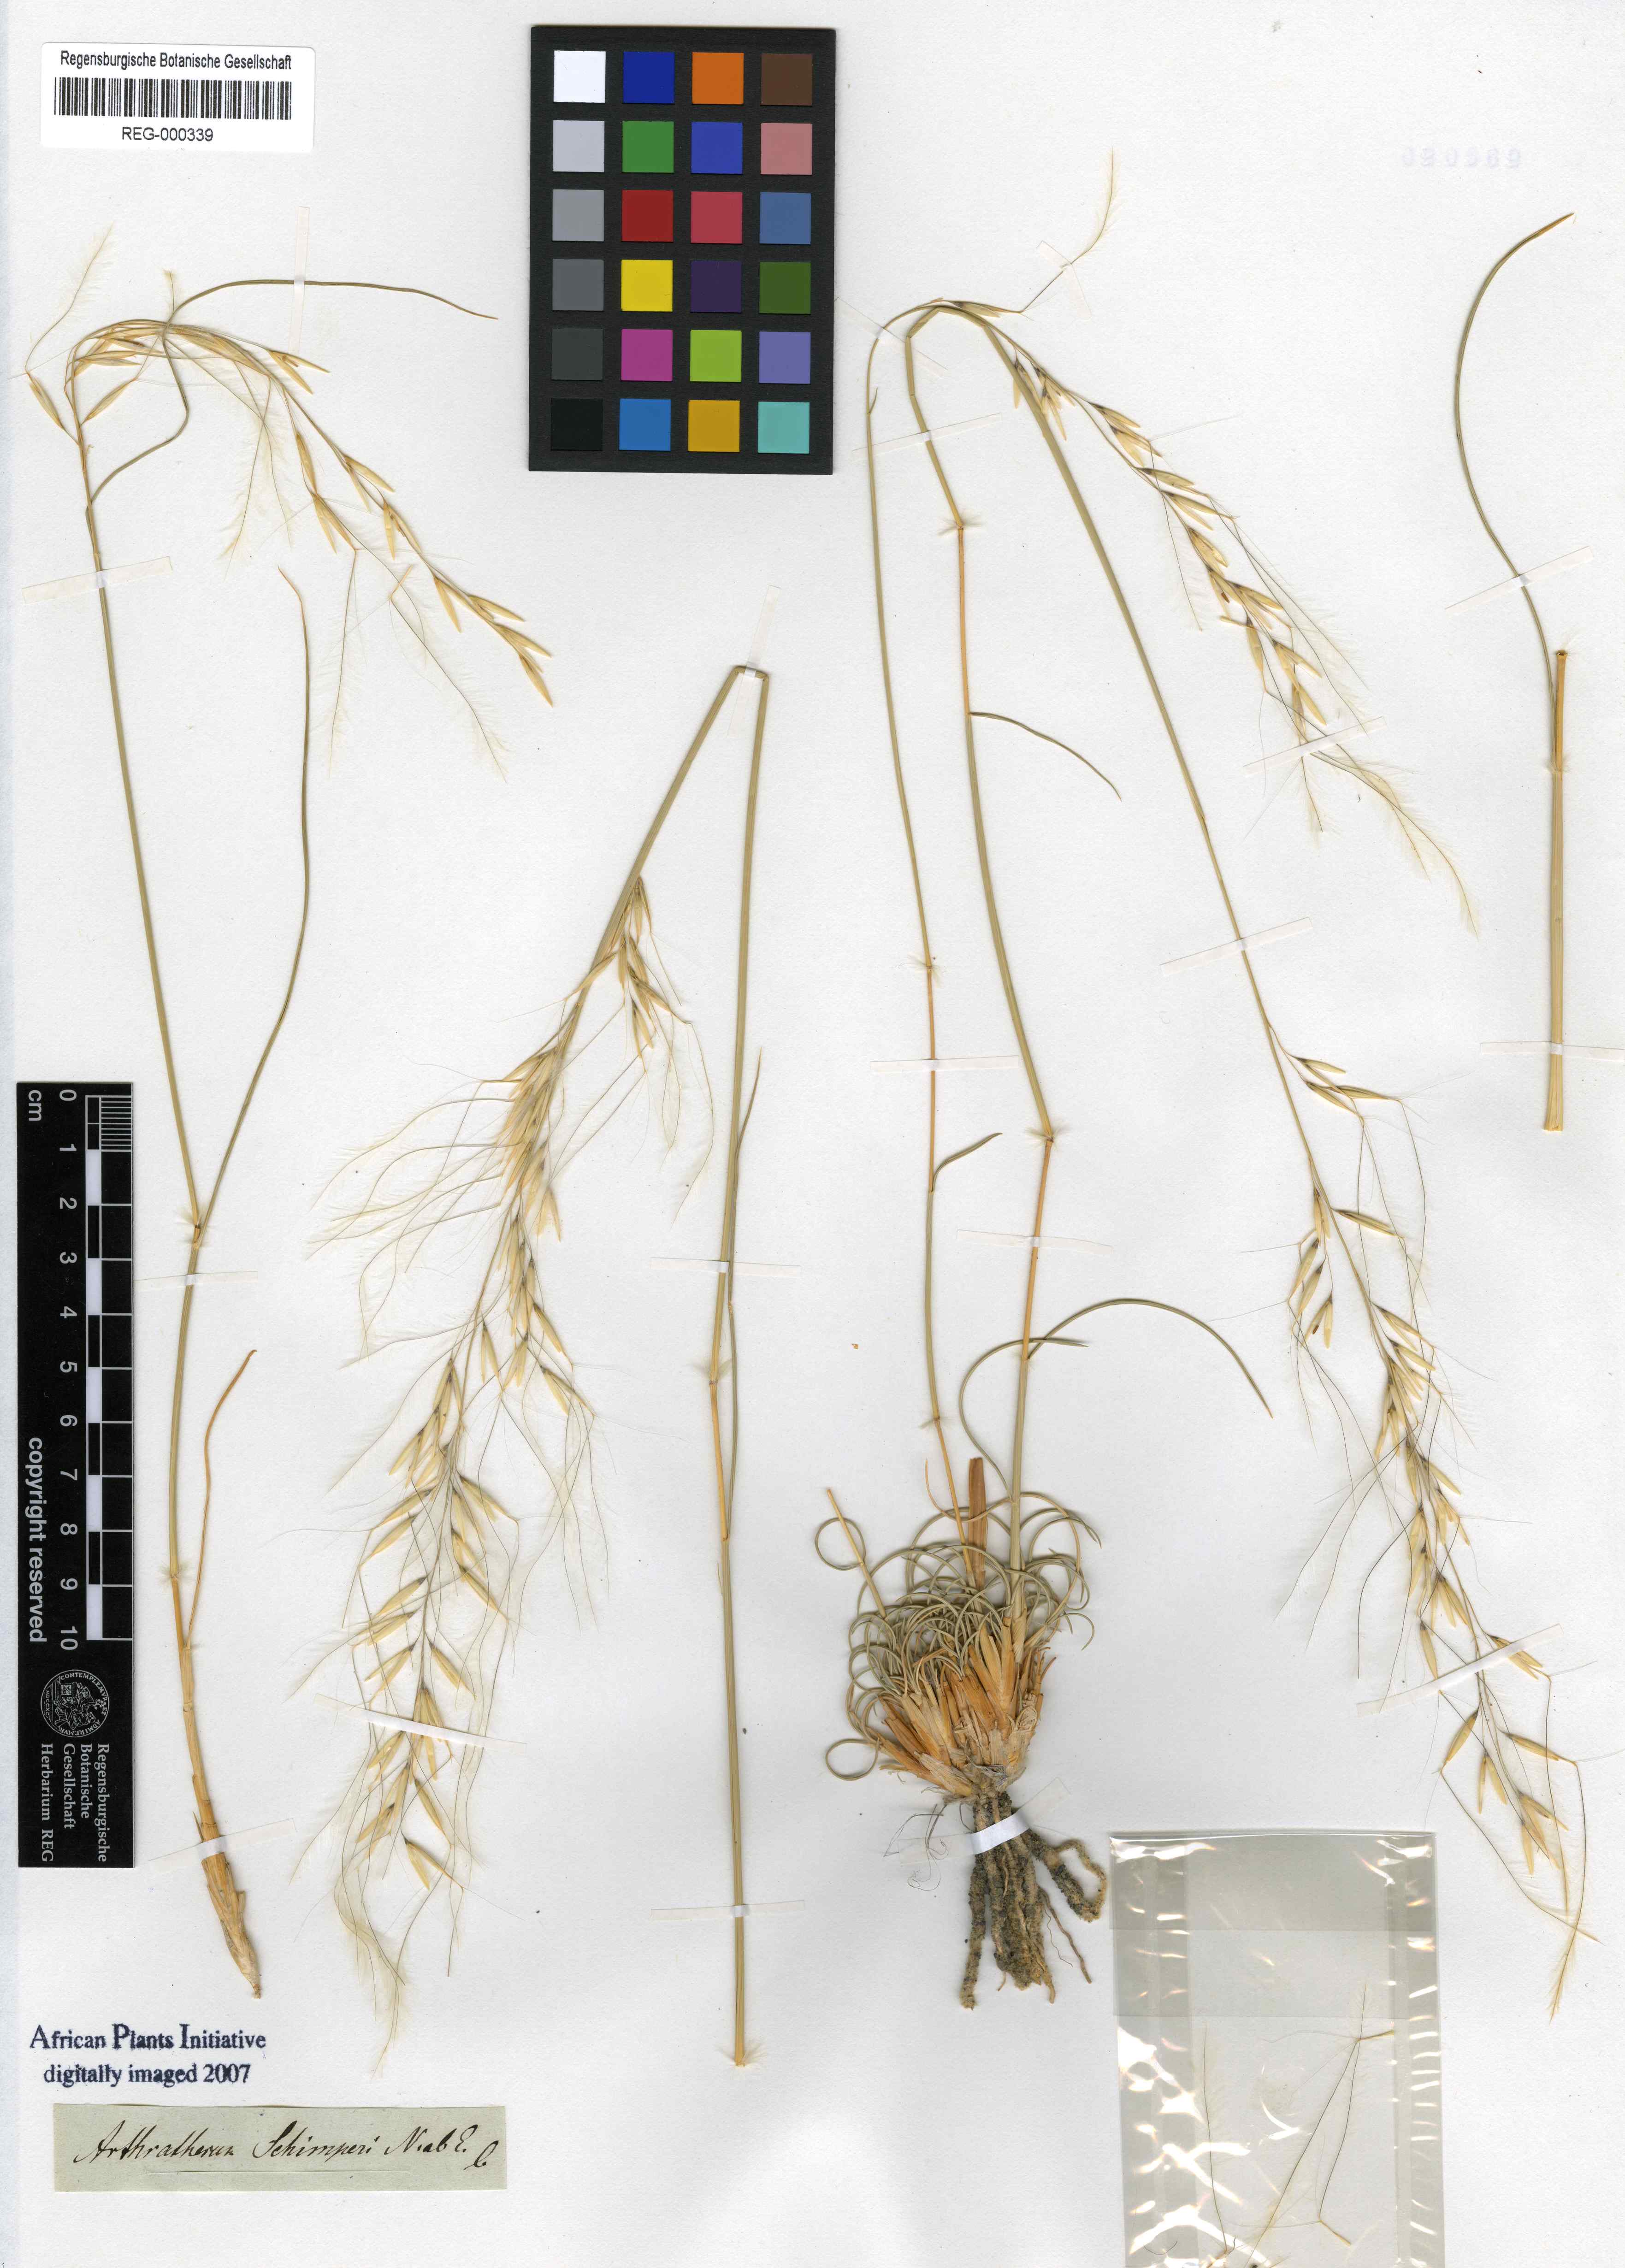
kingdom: Plantae
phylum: Tracheophyta
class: Liliopsida
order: Poales
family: Poaceae
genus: Stipagrostis
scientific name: Stipagrostis ciliata
